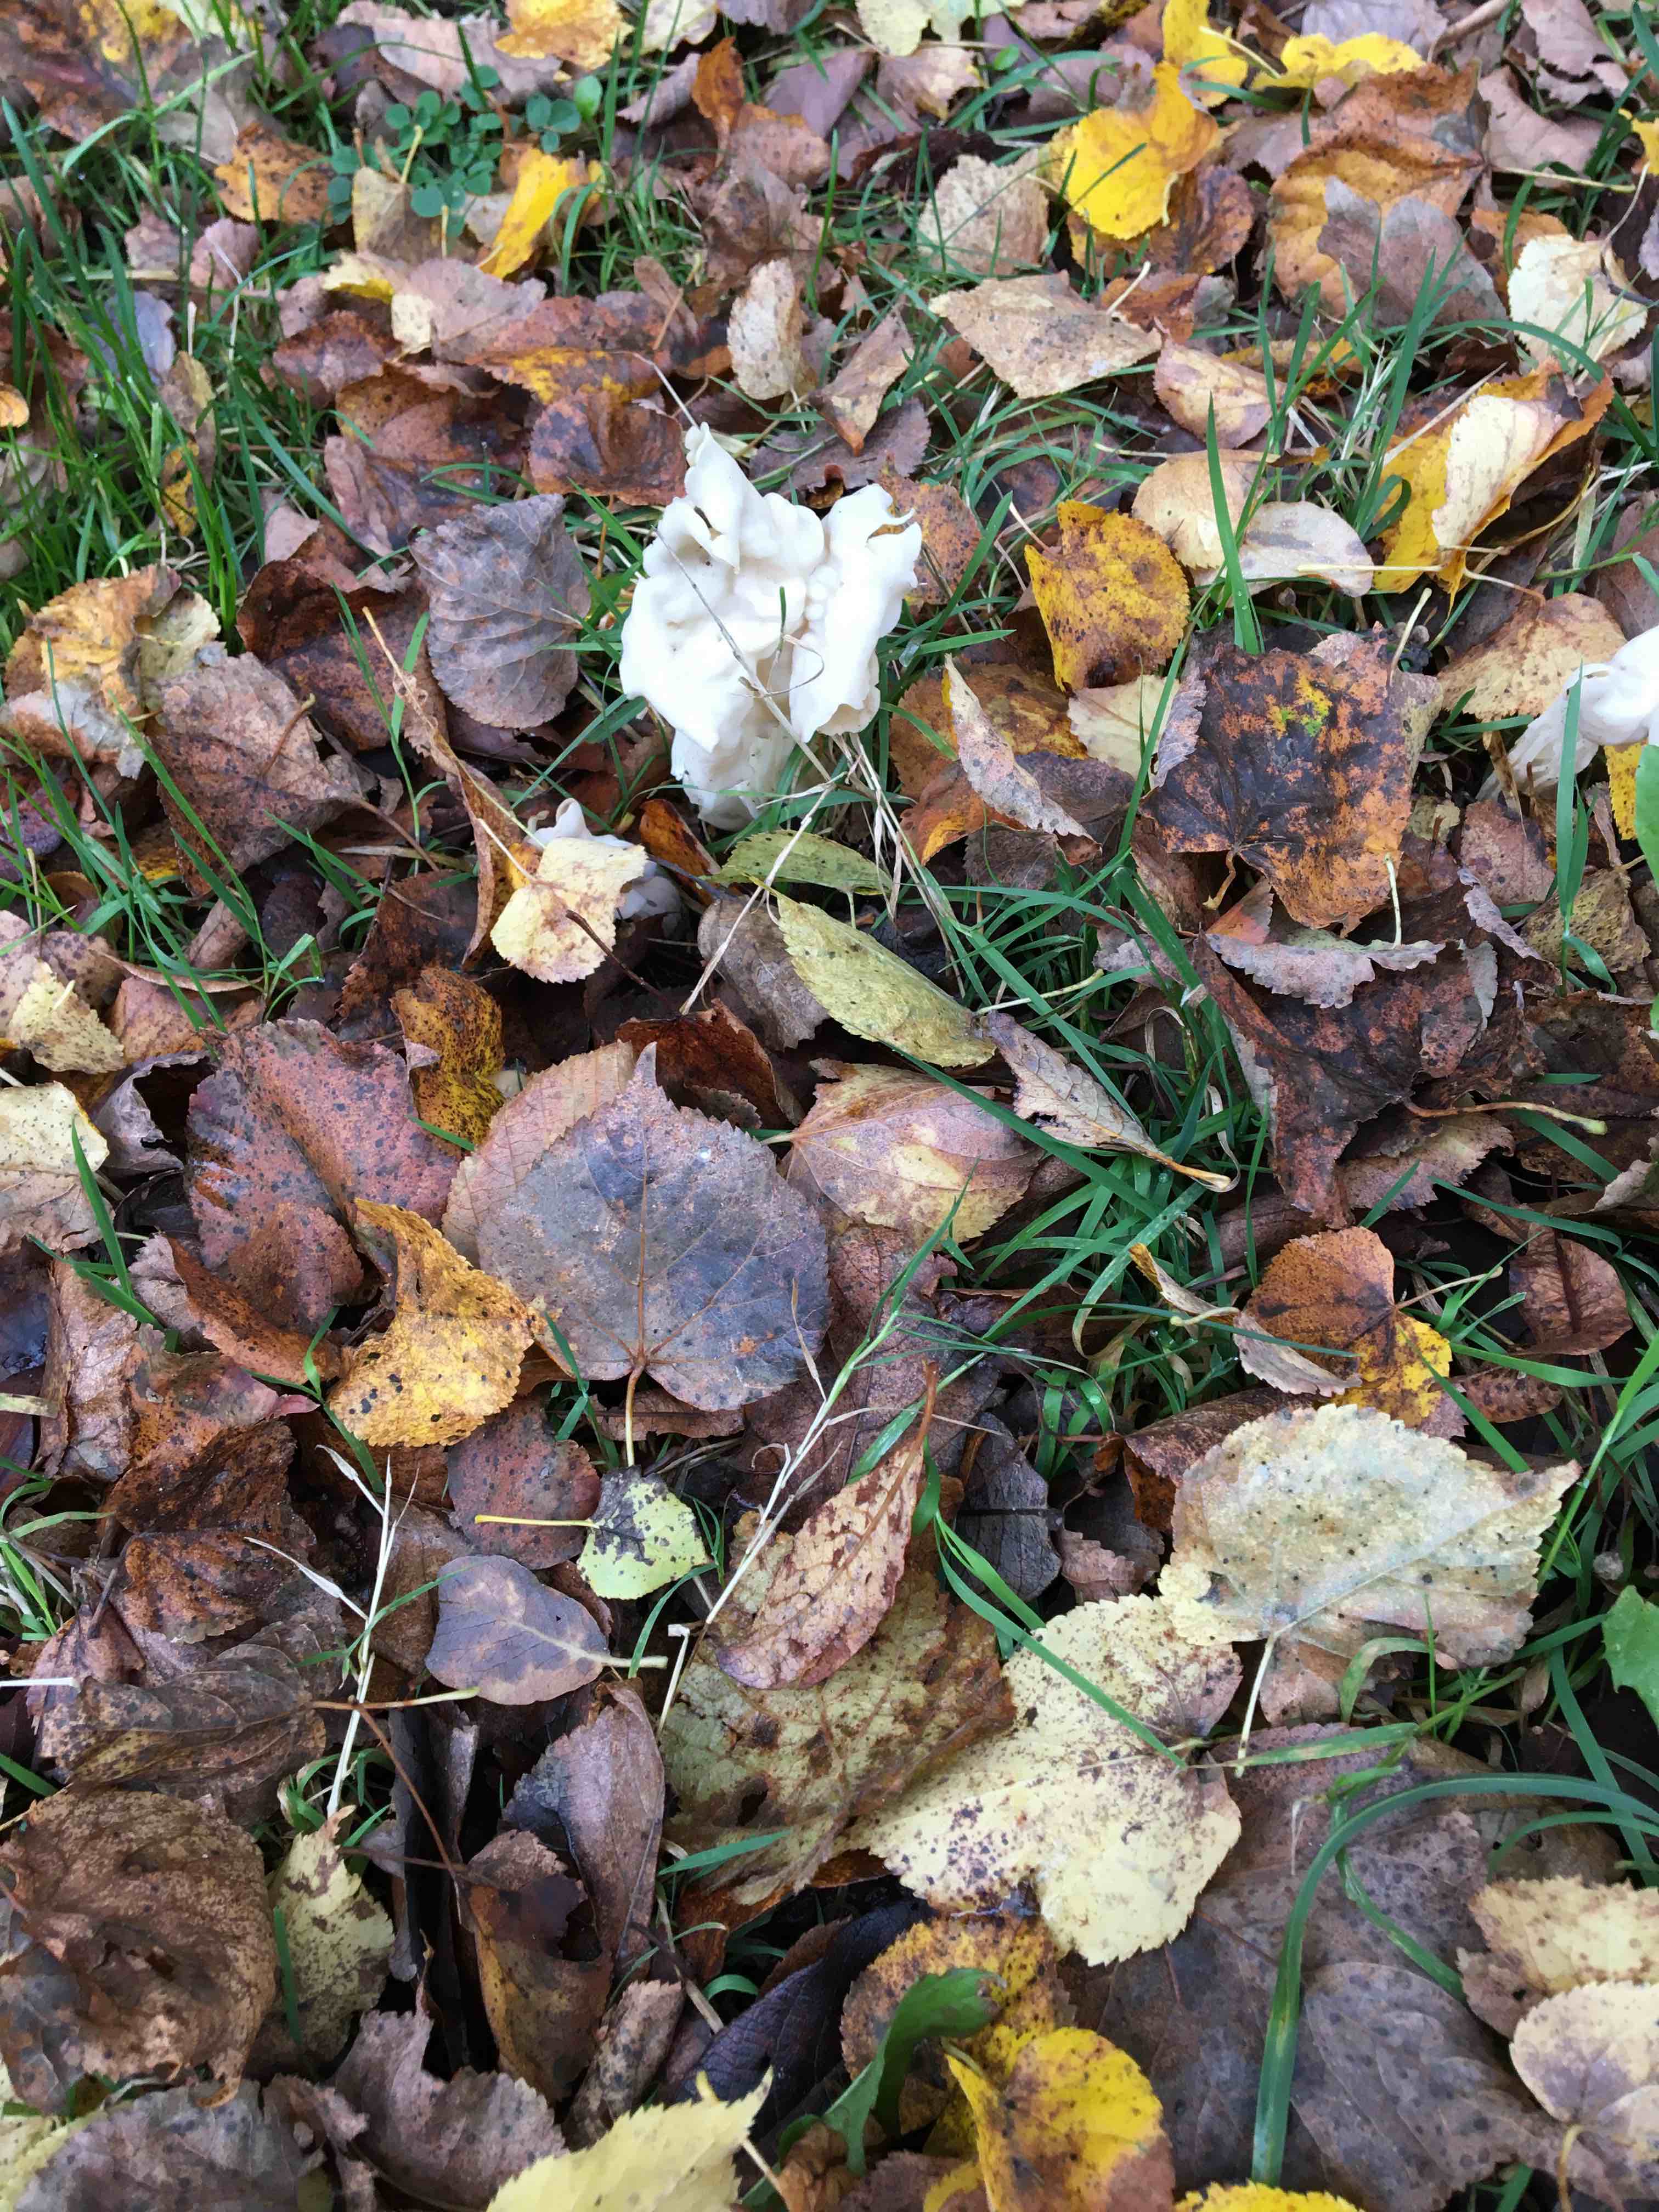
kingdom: Fungi
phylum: Ascomycota
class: Pezizomycetes
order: Pezizales
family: Helvellaceae
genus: Helvella
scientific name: Helvella crispa
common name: kruset foldhat
